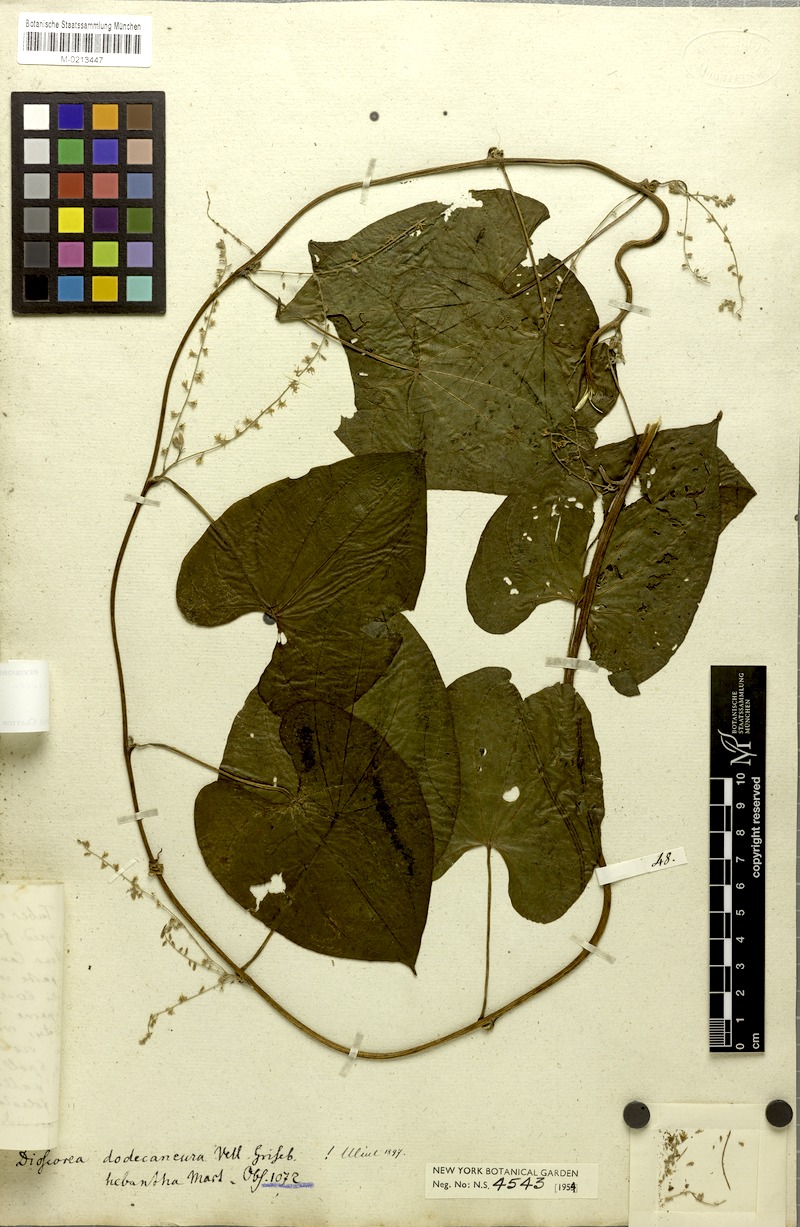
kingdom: Plantae
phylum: Tracheophyta
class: Liliopsida
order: Dioscoreales
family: Dioscoreaceae
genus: Dioscorea
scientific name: Dioscorea dodecaneura
